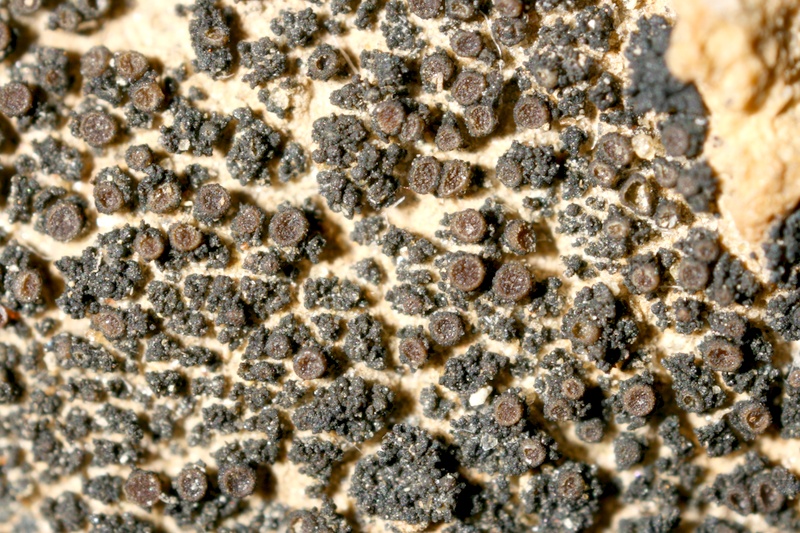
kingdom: Fungi
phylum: Ascomycota
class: Lichinomycetes
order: Lichinales
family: Lichinaceae
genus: Porocyphus
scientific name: Porocyphus coccodes
